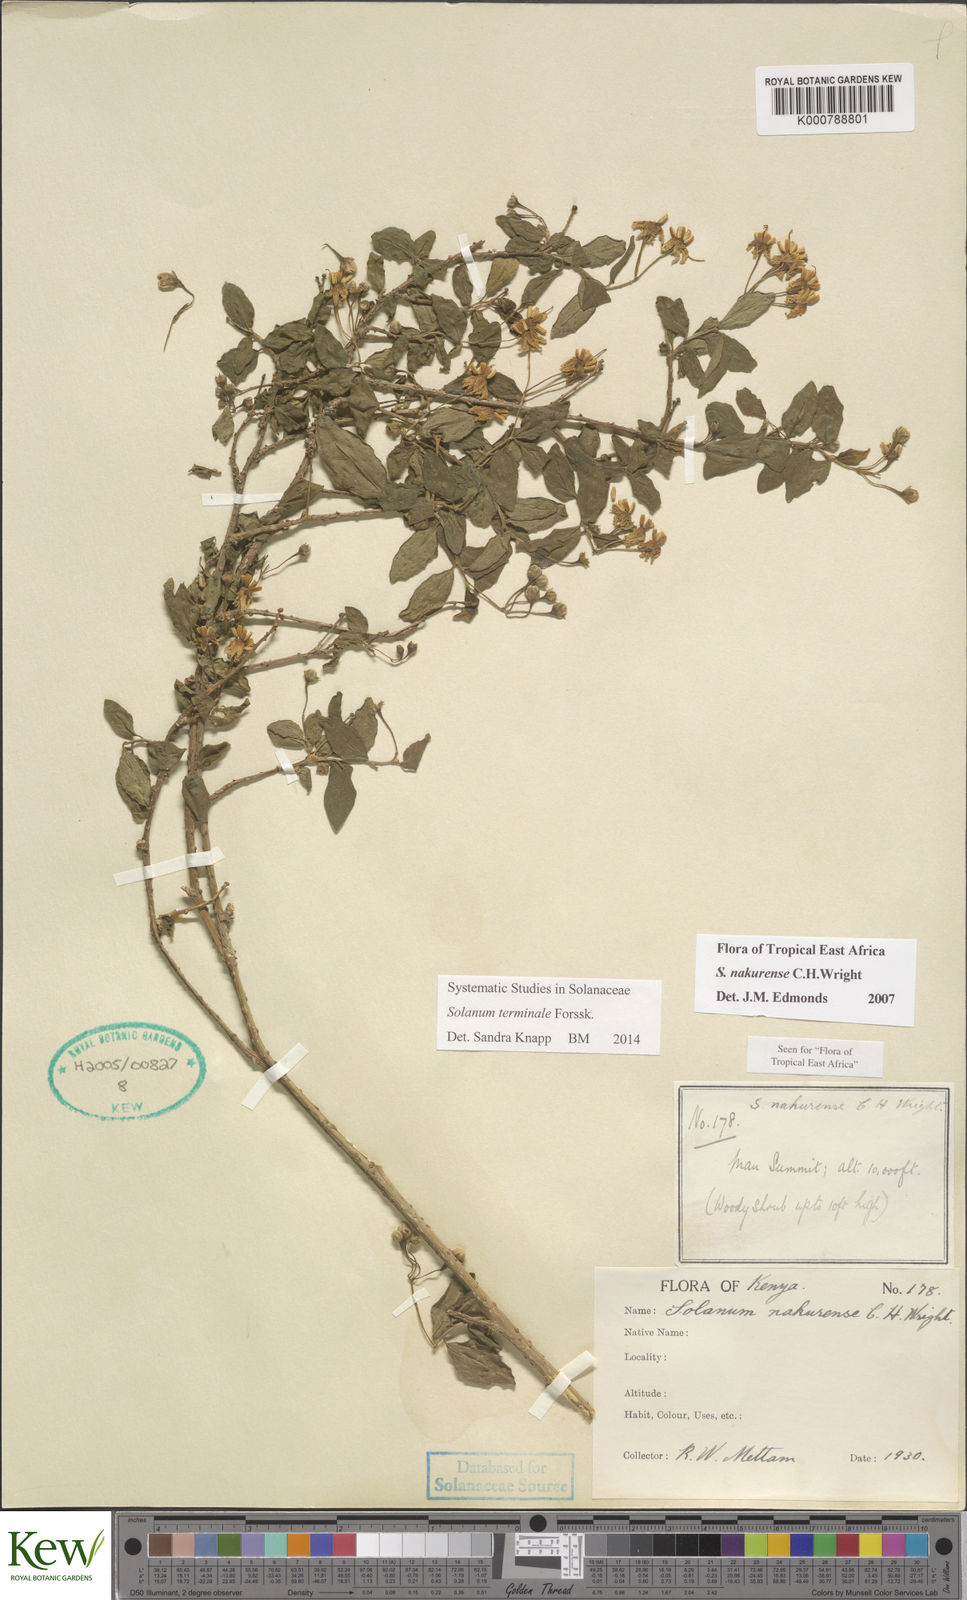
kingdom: Plantae
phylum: Tracheophyta
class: Magnoliopsida
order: Solanales
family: Solanaceae
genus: Solanum
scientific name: Solanum terminale
